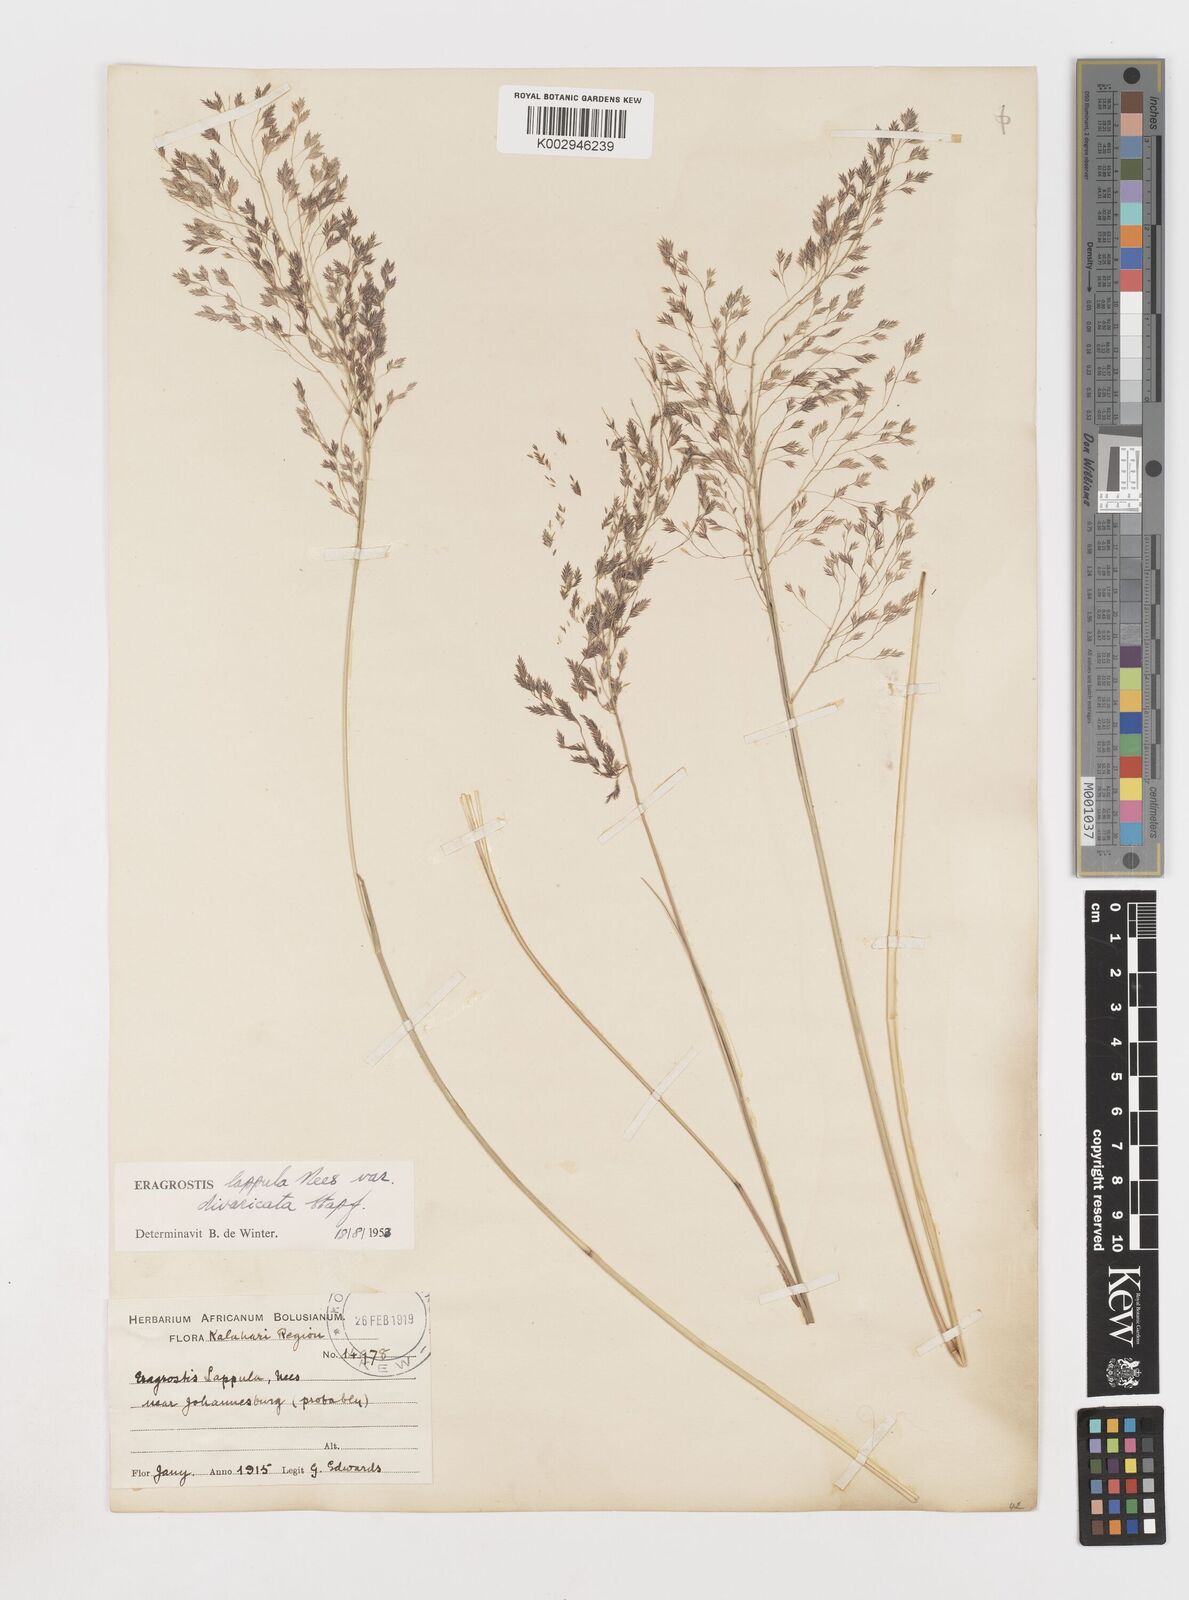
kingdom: Plantae
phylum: Tracheophyta
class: Liliopsida
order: Poales
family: Poaceae
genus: Eragrostis
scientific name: Eragrostis lappula
